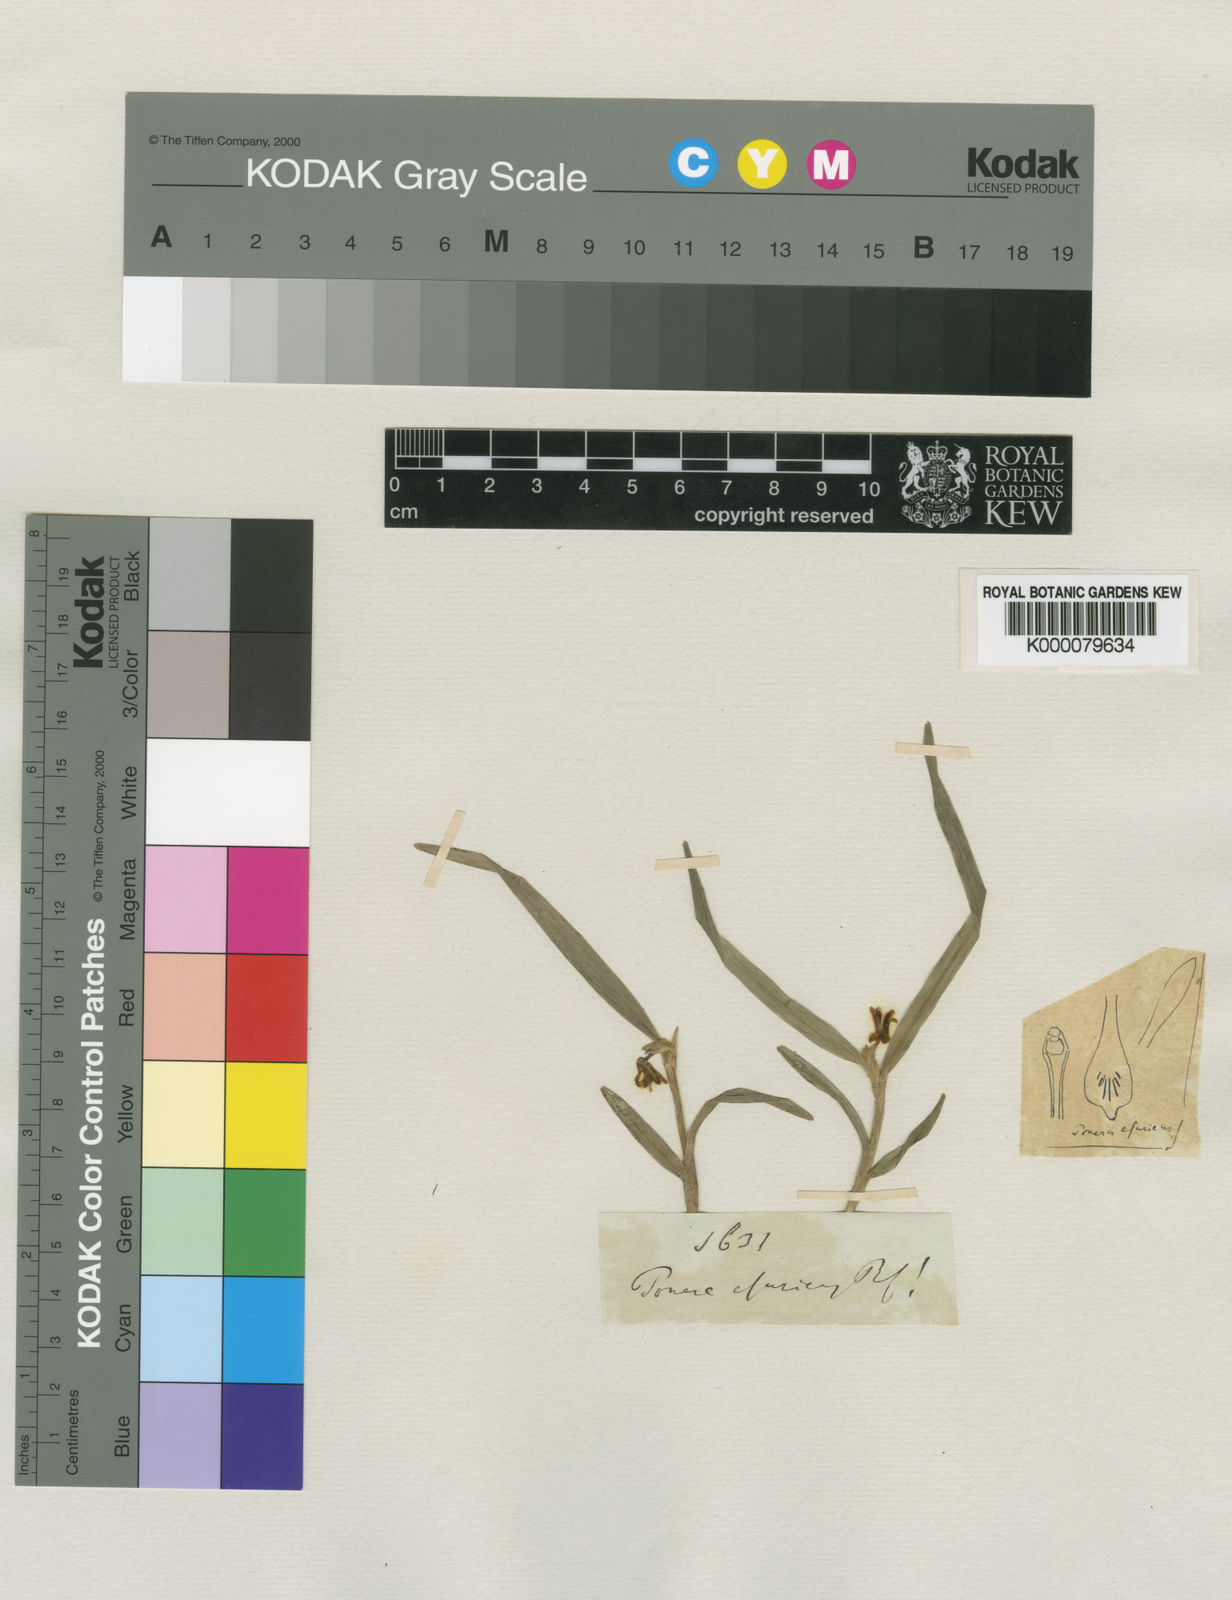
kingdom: Plantae
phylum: Tracheophyta
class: Liliopsida
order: Asparagales
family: Orchidaceae
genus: Scaphyglottis
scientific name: Scaphyglottis leucantha
